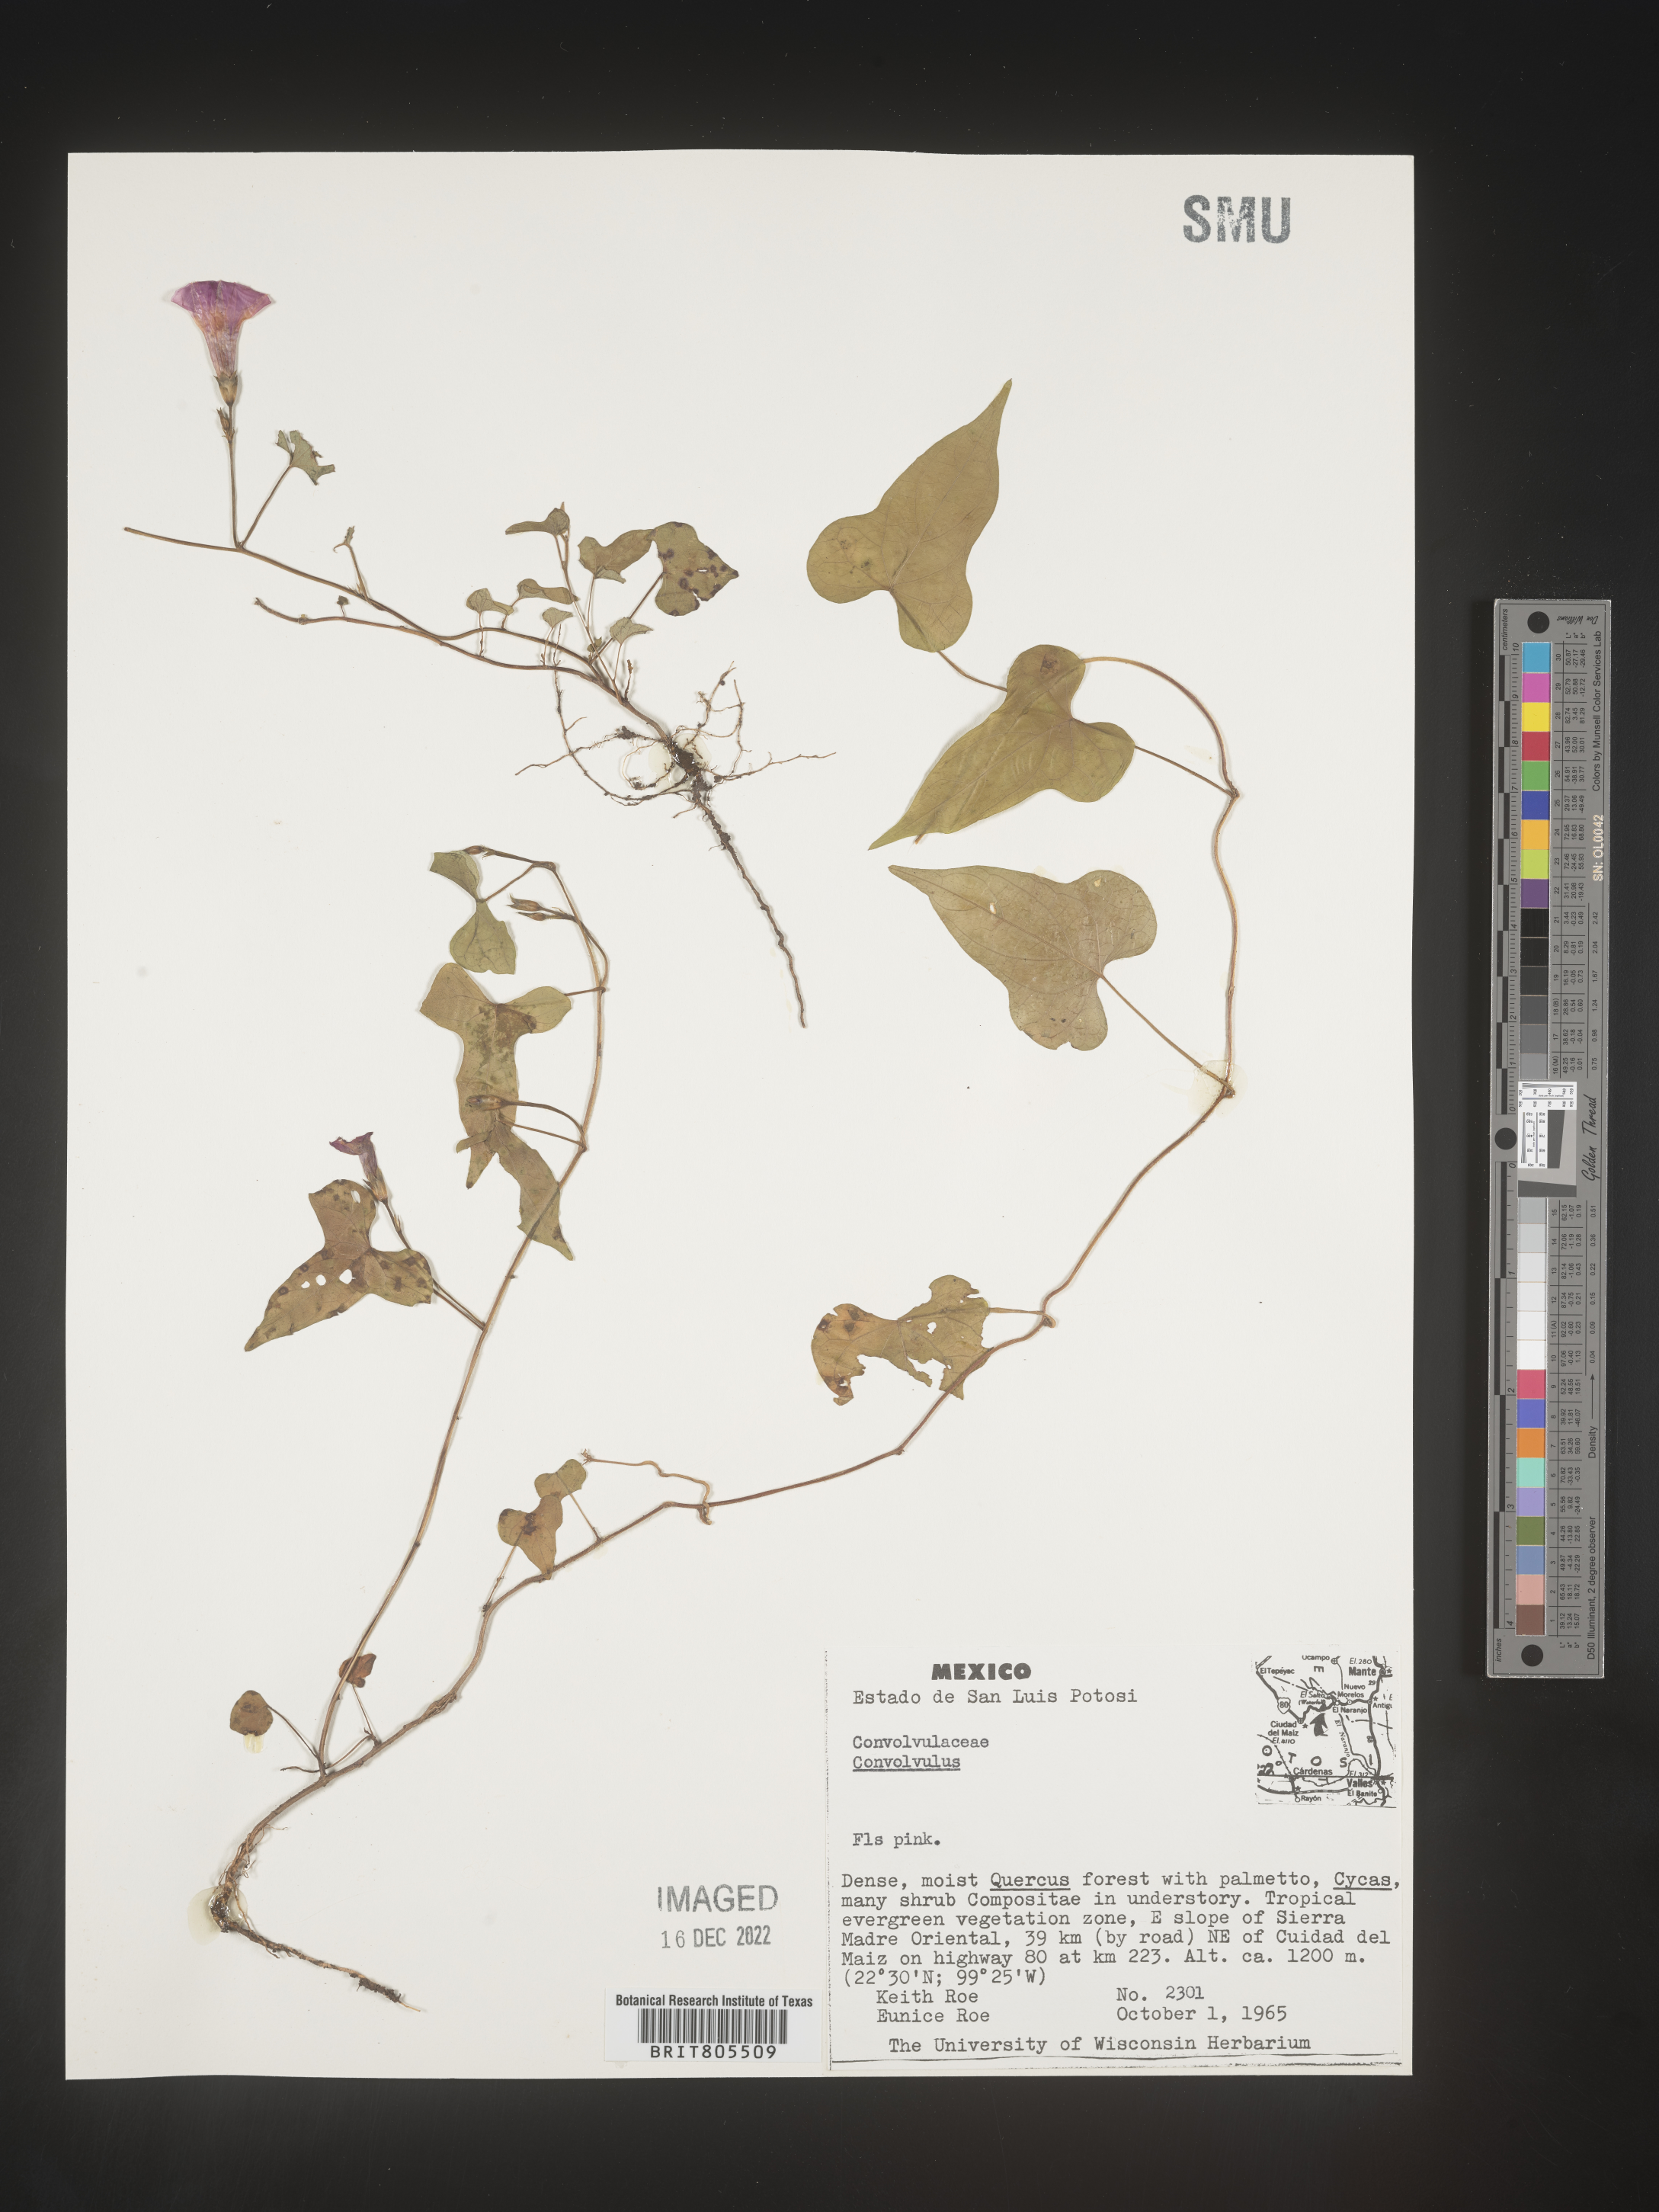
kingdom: Plantae
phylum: Tracheophyta
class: Magnoliopsida
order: Solanales
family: Convolvulaceae
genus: Ipomoea
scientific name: Ipomoea
